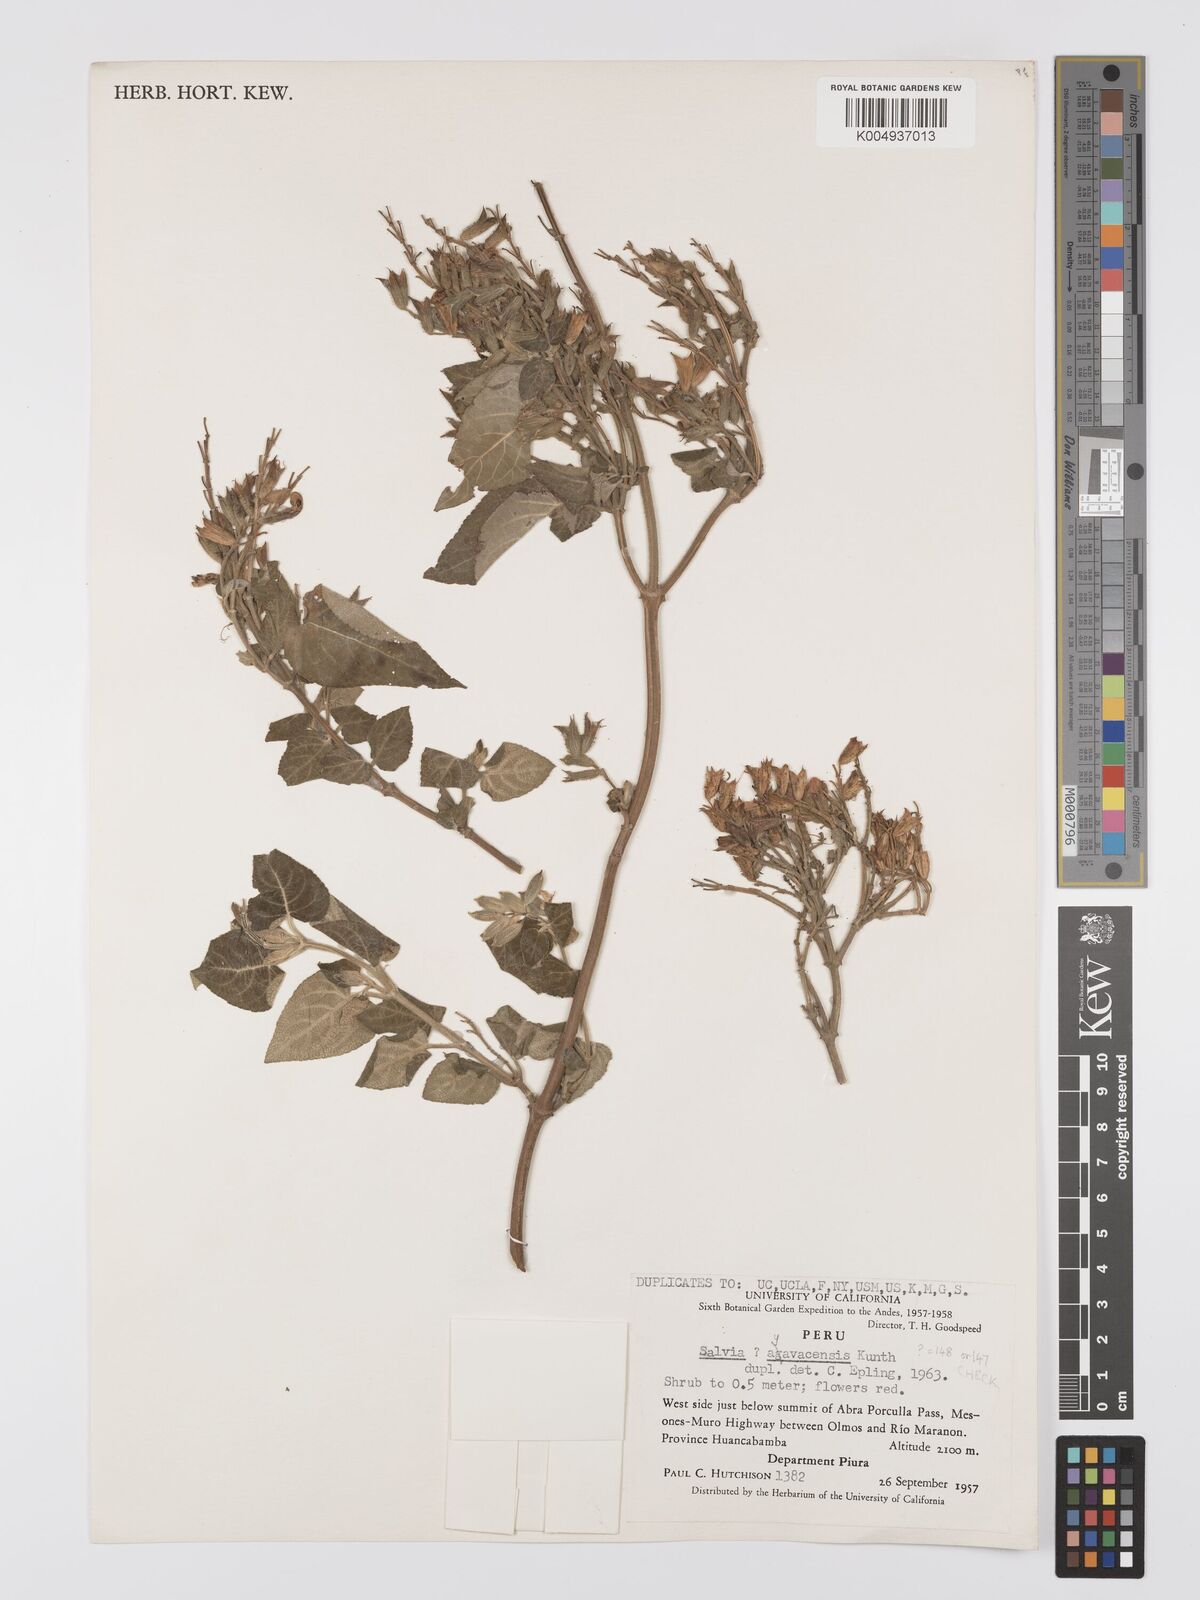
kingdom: Plantae
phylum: Tracheophyta
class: Magnoliopsida
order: Lamiales
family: Lamiaceae
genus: Salvia
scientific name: Salvia ayavazensis
